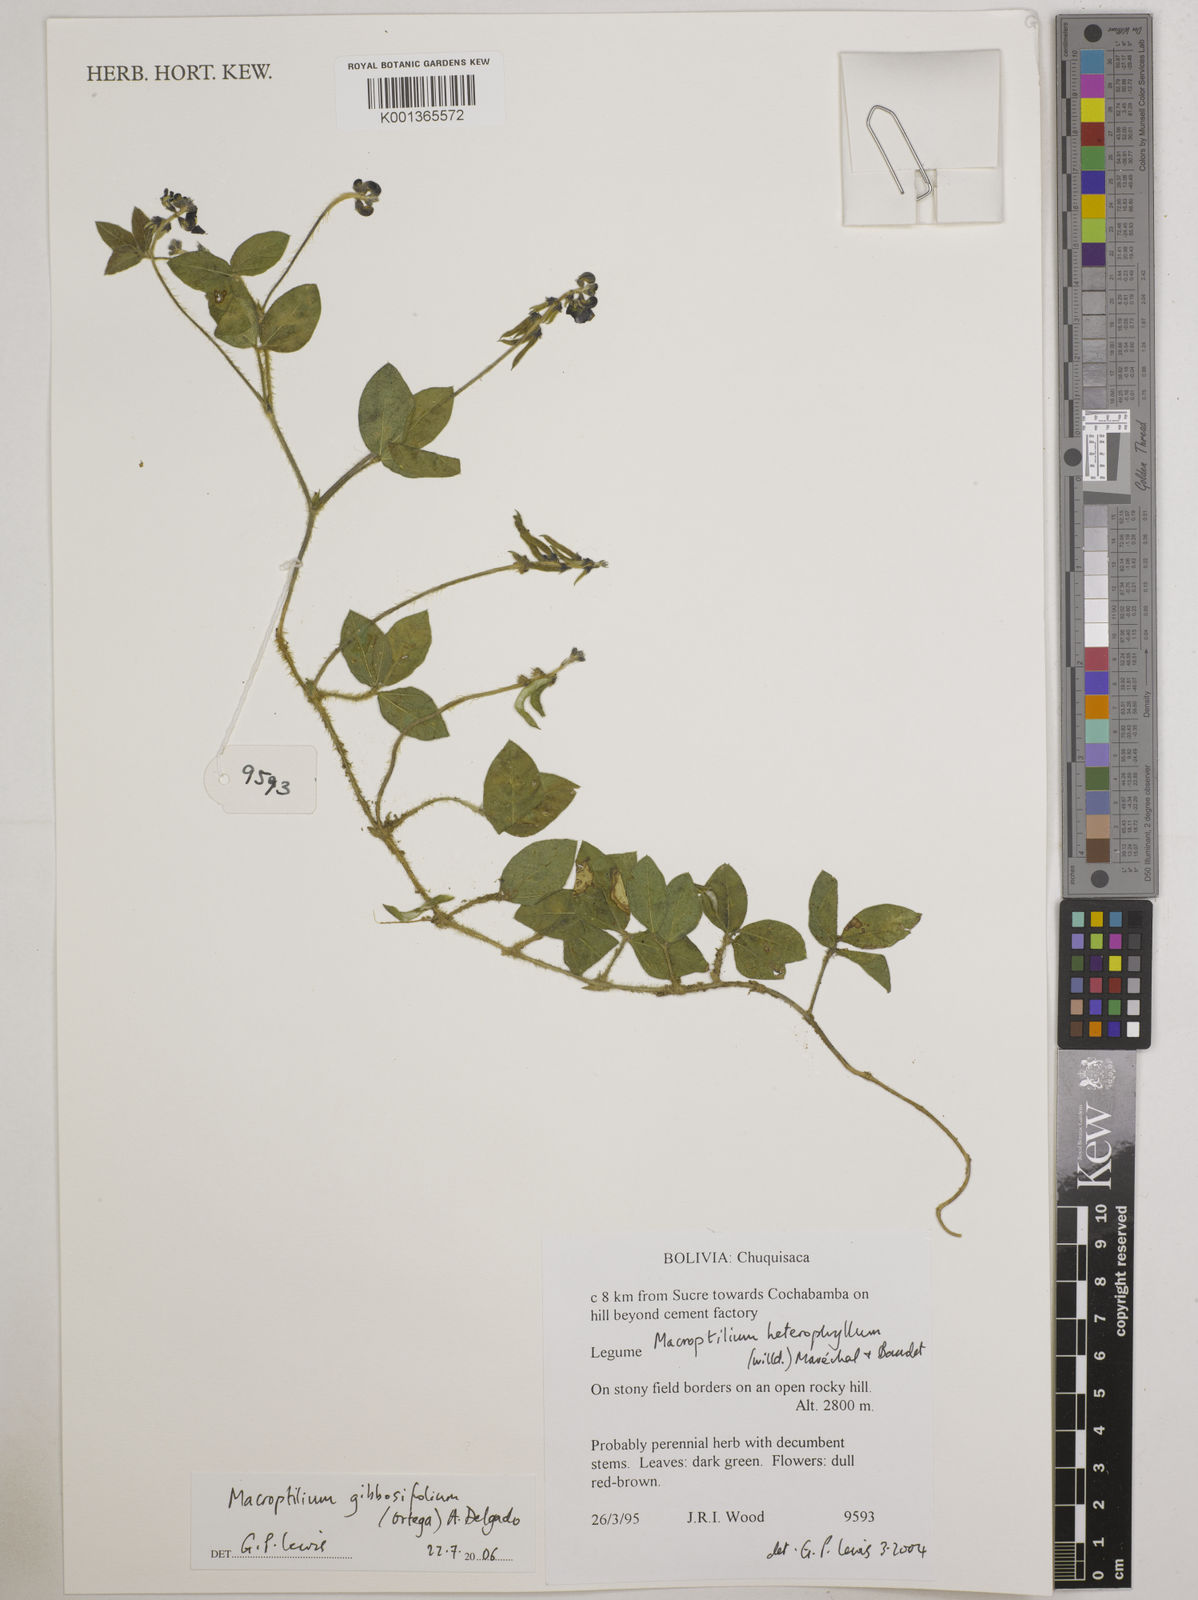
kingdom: Plantae
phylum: Tracheophyta
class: Magnoliopsida
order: Fabales
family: Fabaceae
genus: Macroptilium
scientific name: Macroptilium gibbosifolium
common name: Variableleaf bushbean
